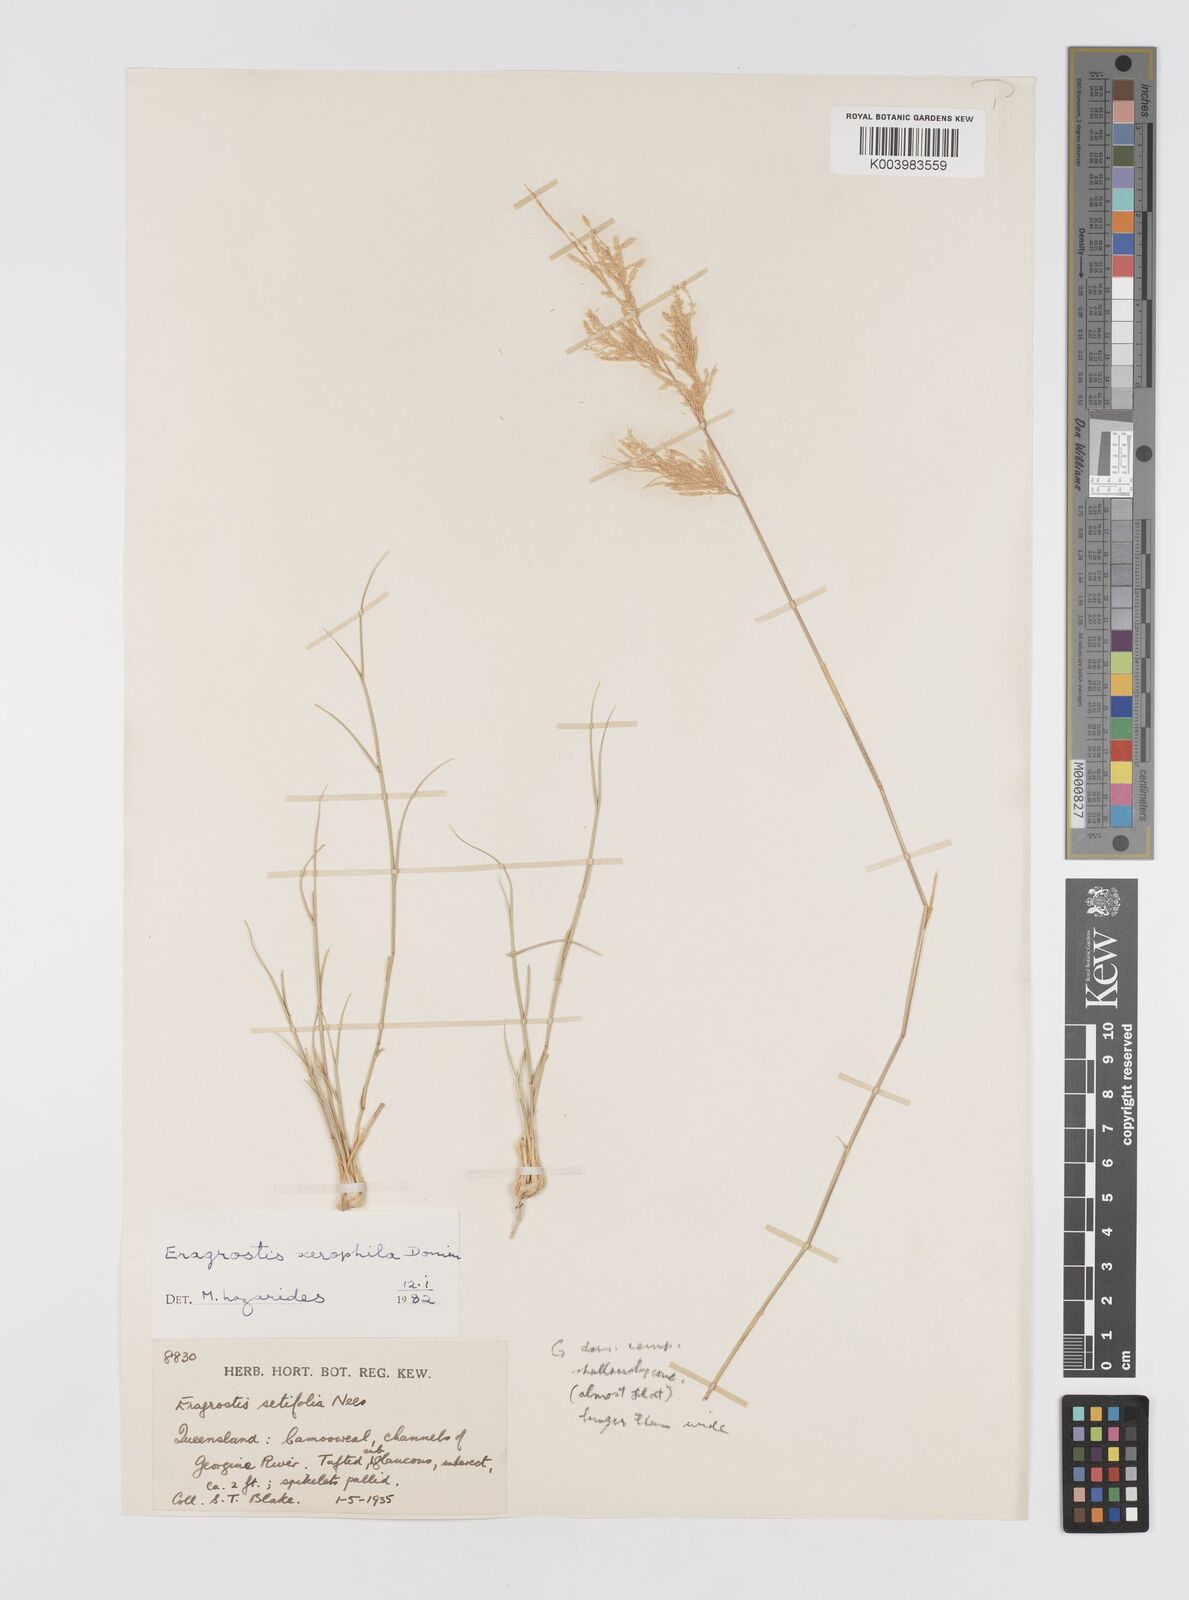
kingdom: Plantae
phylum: Tracheophyta
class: Liliopsida
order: Poales
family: Poaceae
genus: Eragrostis
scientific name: Eragrostis xerophila
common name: Wire wandarrie grass
